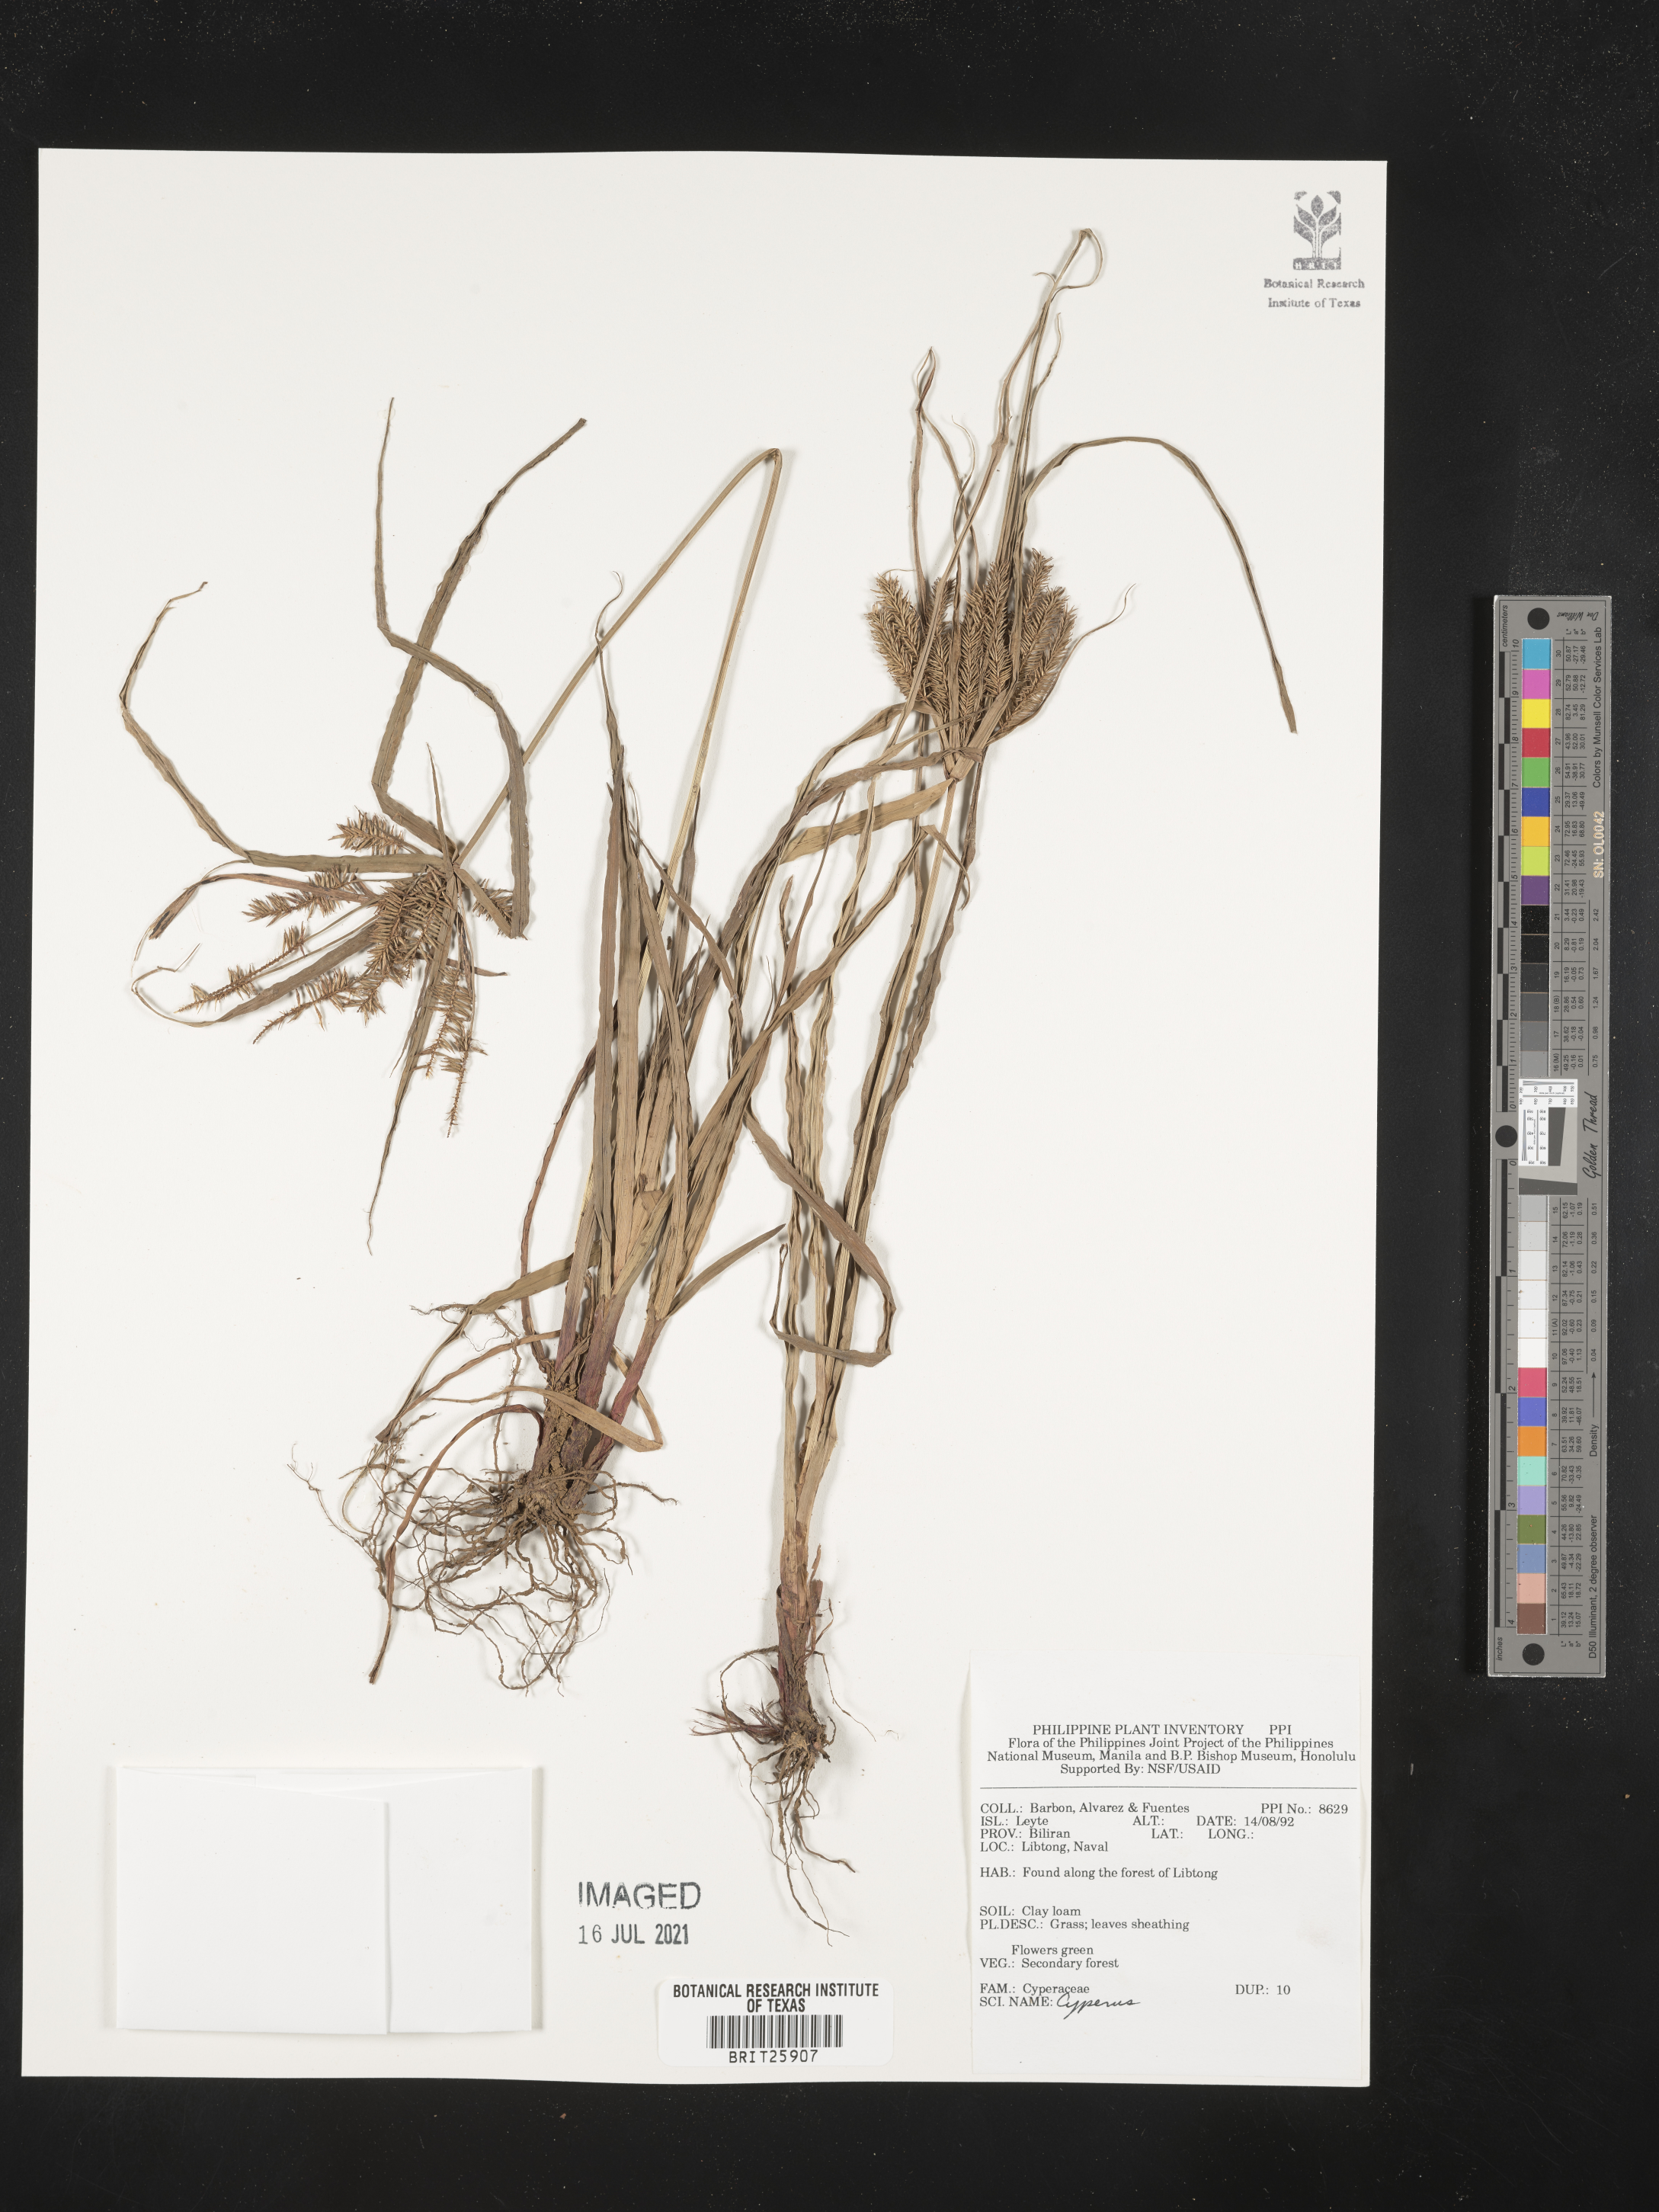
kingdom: Plantae
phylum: Tracheophyta
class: Liliopsida
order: Poales
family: Cyperaceae
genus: Cyperus
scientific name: Cyperus
